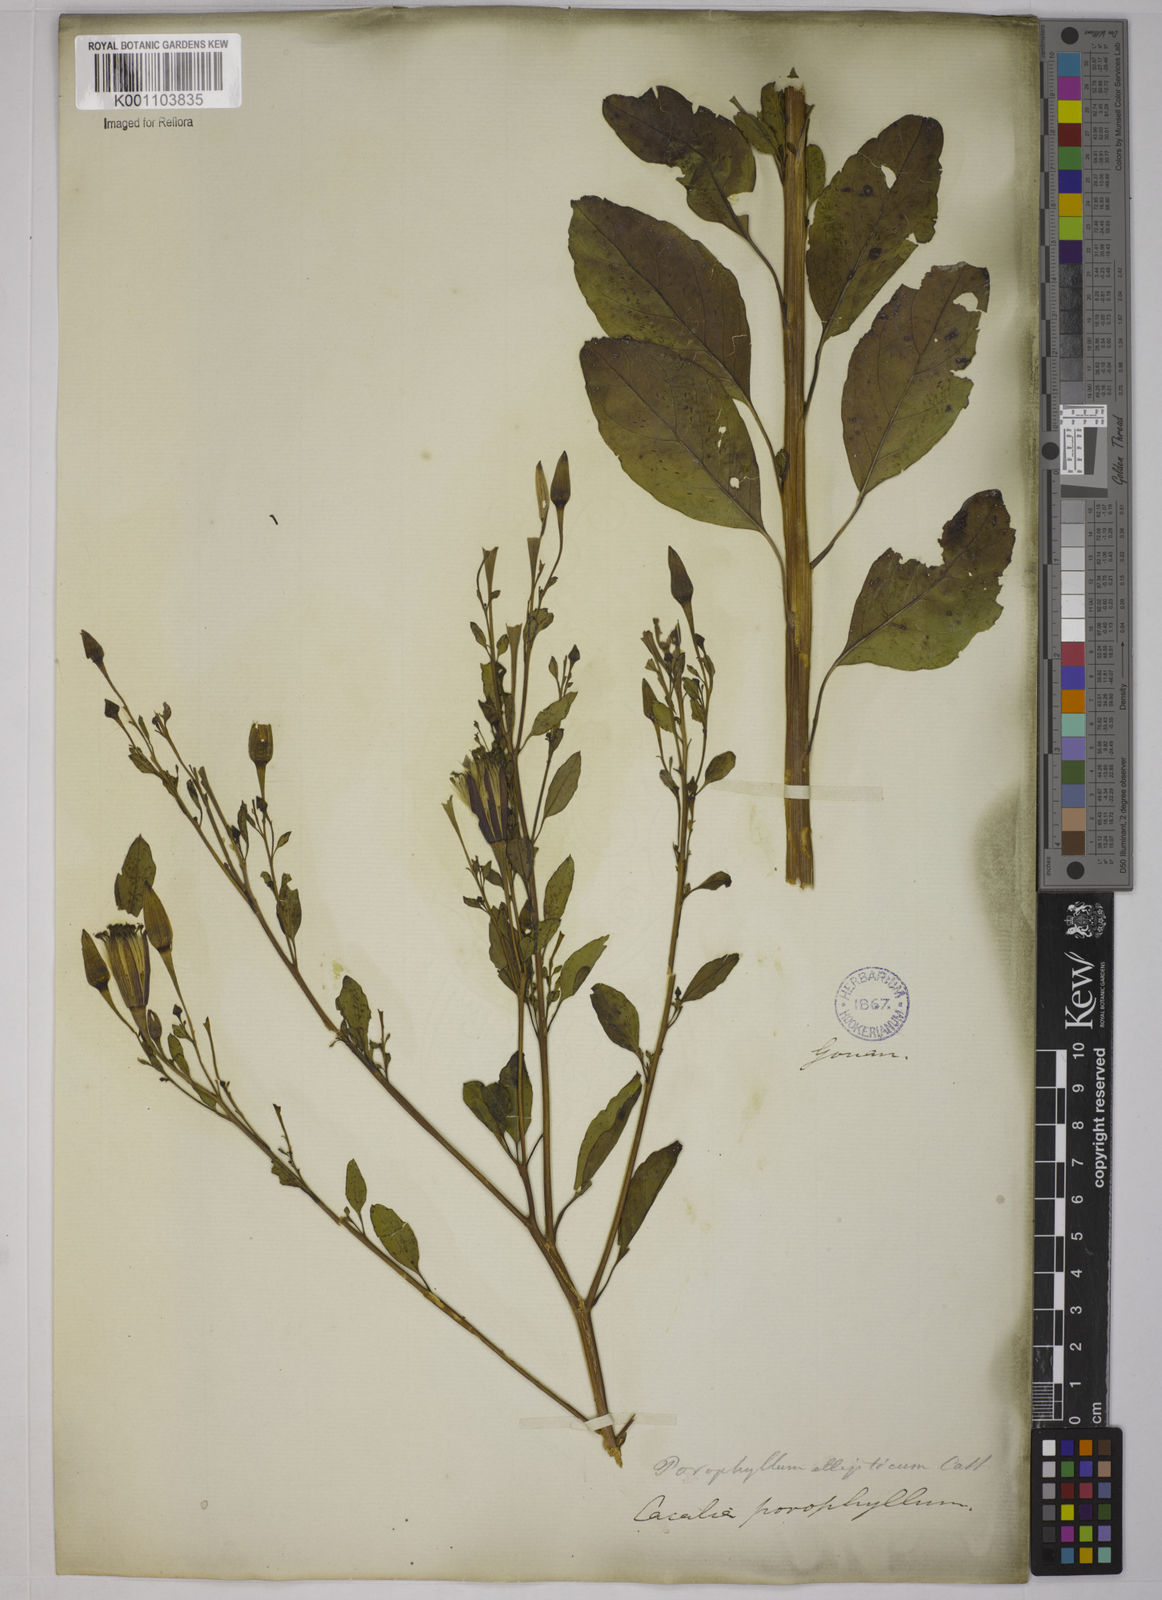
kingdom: Plantae
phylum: Tracheophyta
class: Magnoliopsida
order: Asterales
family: Asteraceae
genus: Porophyllum
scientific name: Porophyllum ruderale
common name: Yerba porosa
